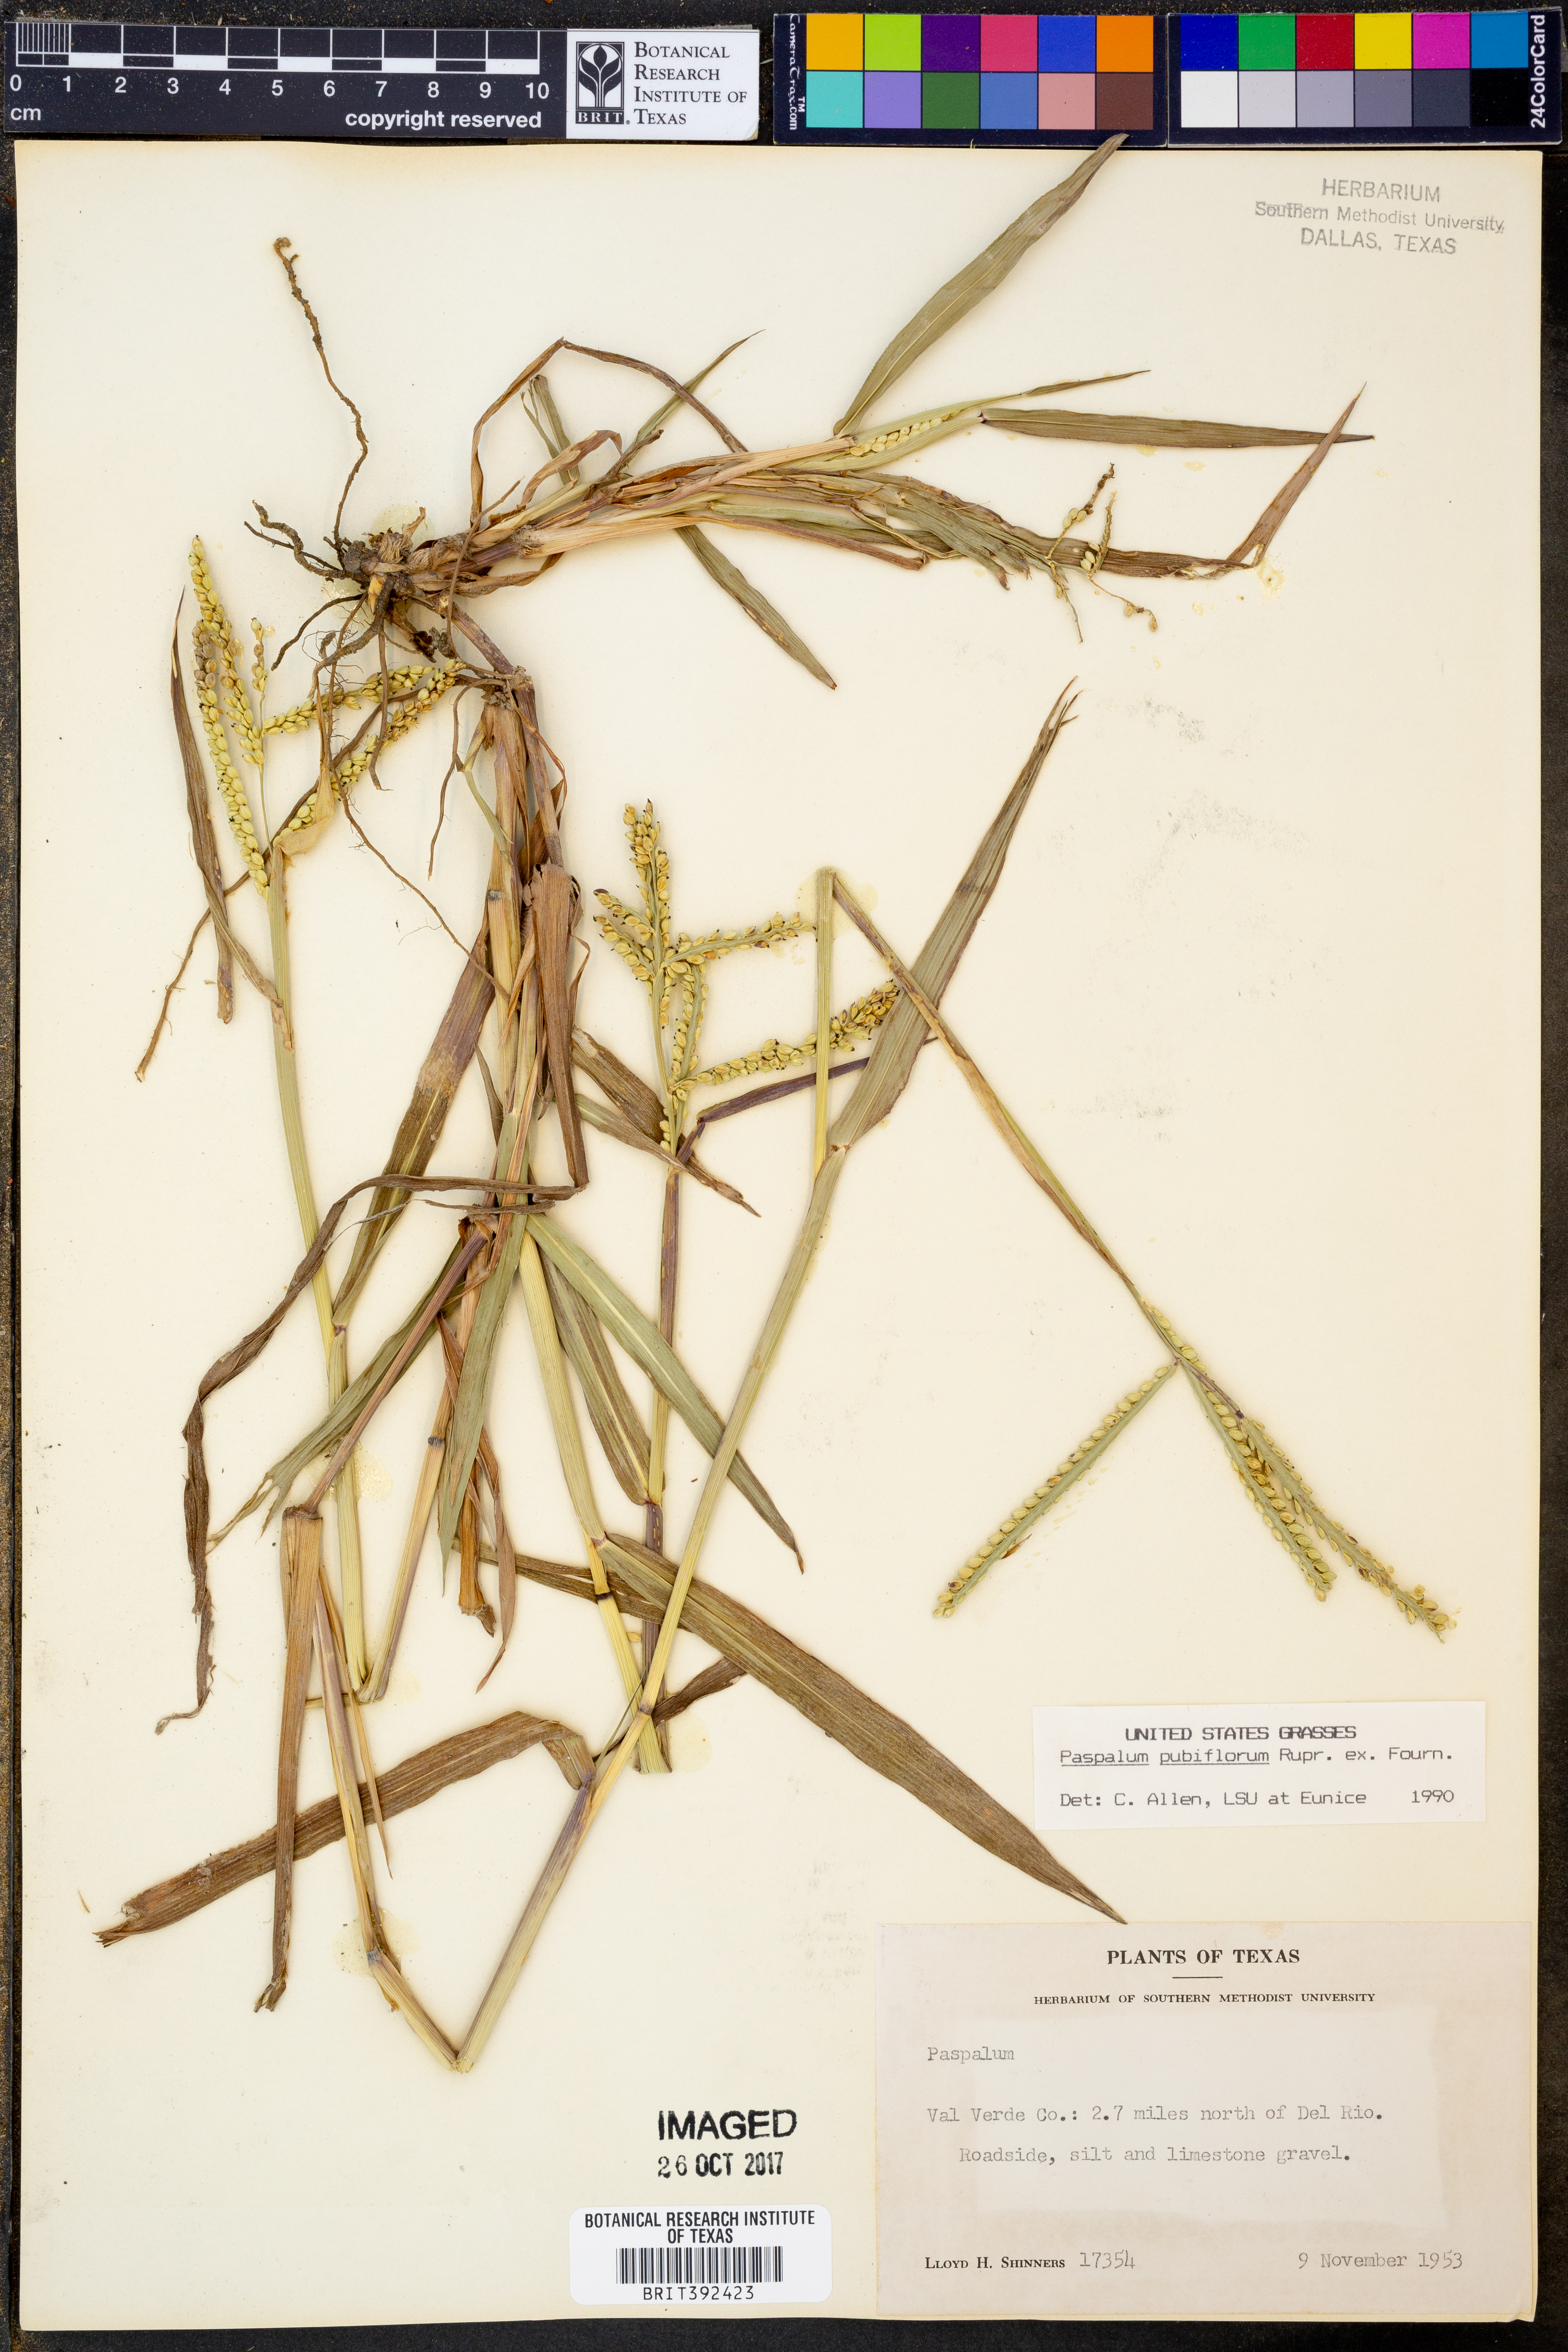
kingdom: Plantae
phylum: Tracheophyta
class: Liliopsida
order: Poales
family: Poaceae
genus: Paspalum
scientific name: Paspalum pubiflorum
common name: Hairy-seed paspalum
